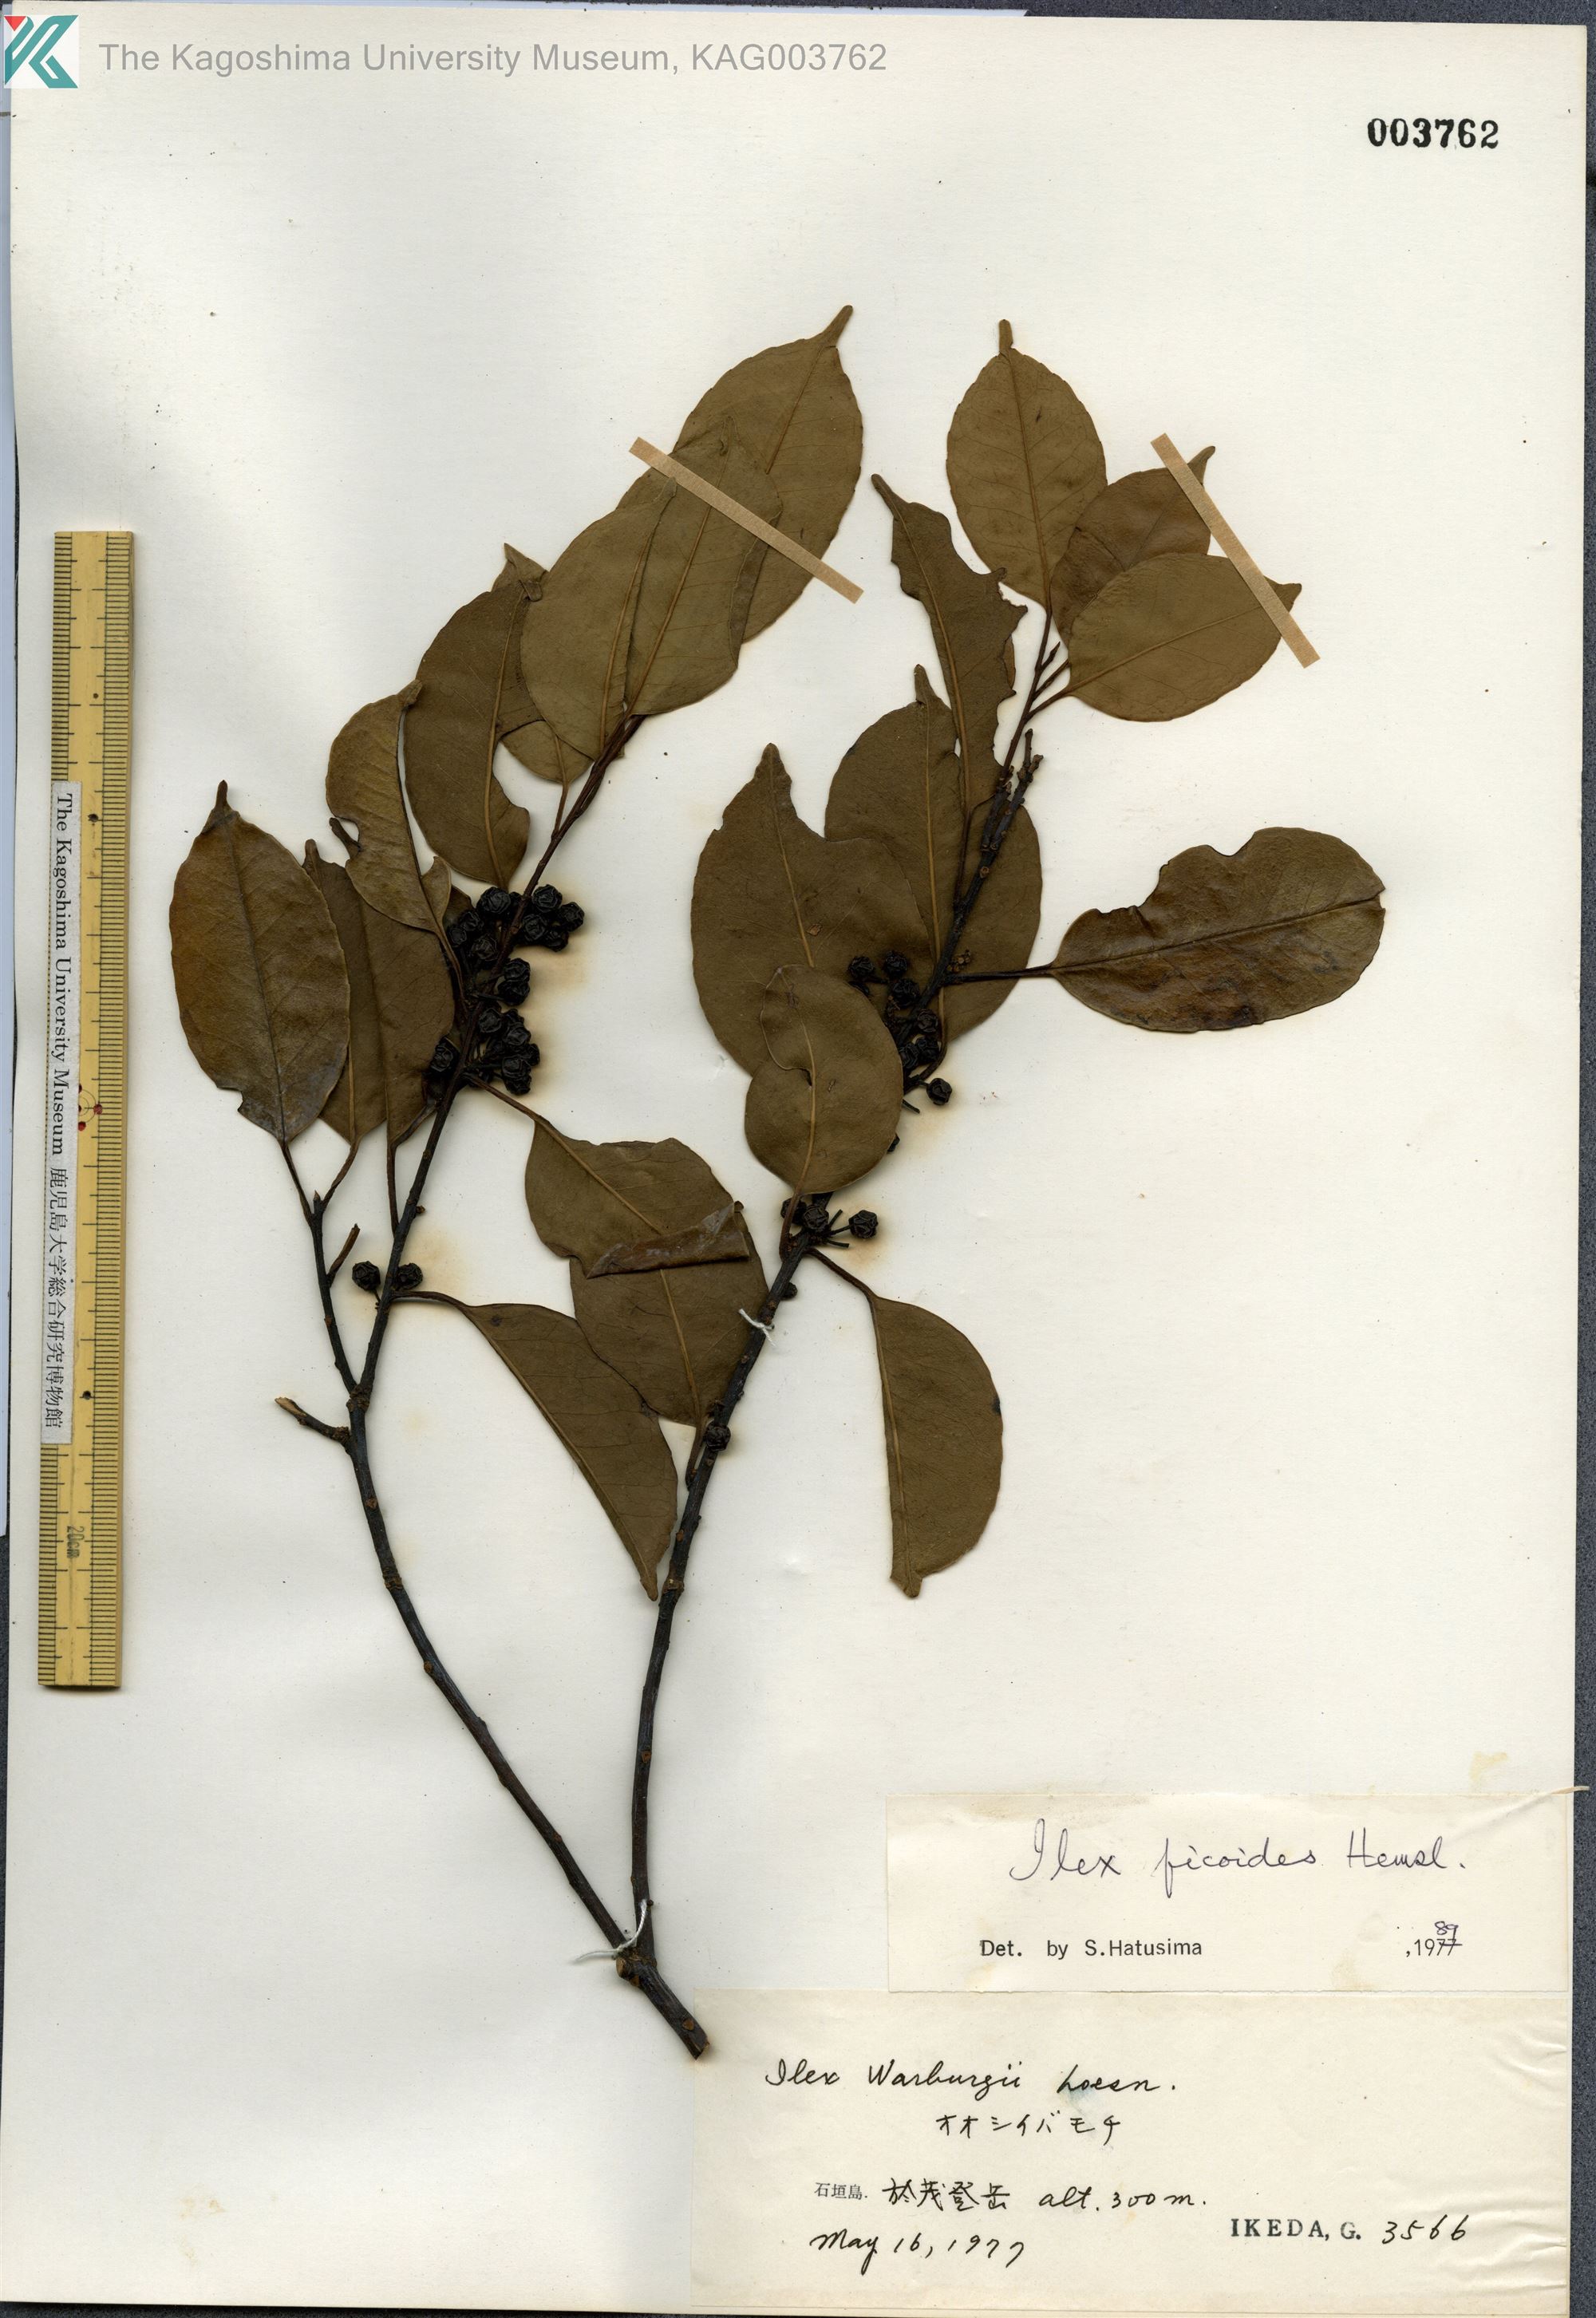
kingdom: Plantae
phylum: Tracheophyta
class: Magnoliopsida
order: Aquifoliales
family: Aquifoliaceae
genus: Ilex
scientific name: Ilex warburgii
